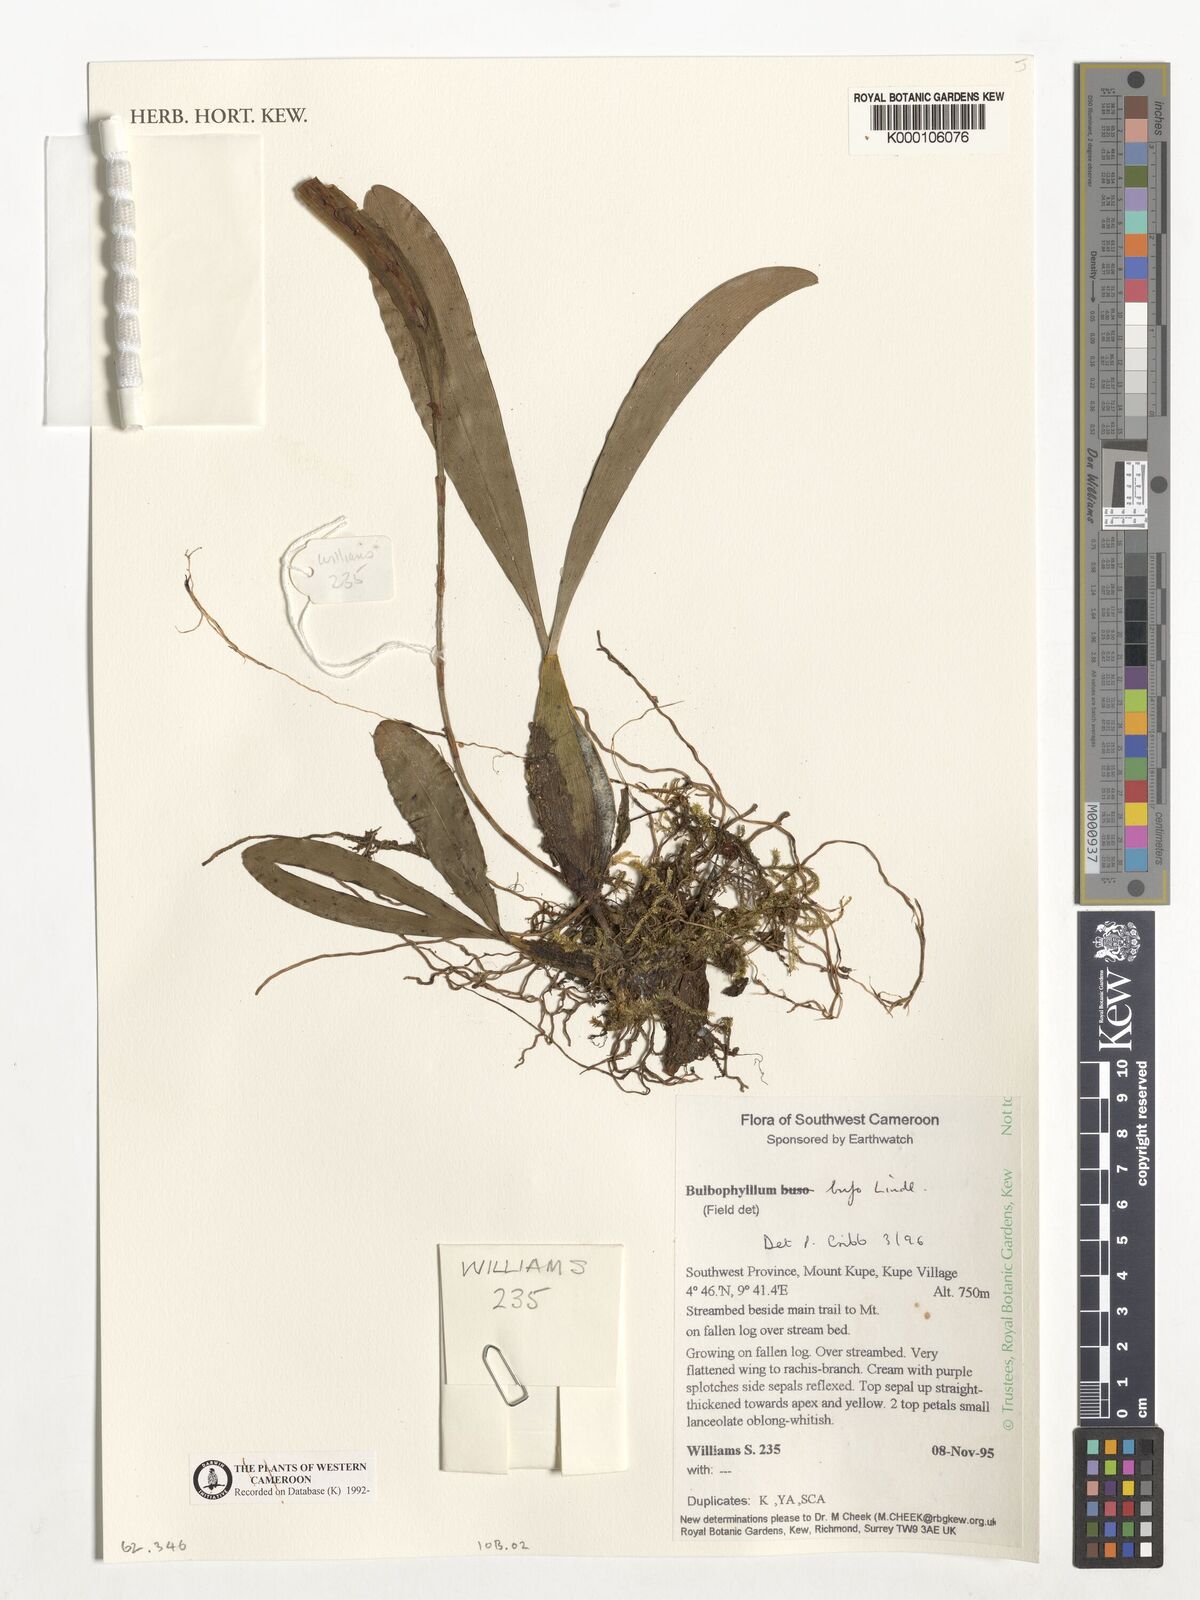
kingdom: Plantae
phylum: Tracheophyta
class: Liliopsida
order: Asparagales
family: Orchidaceae
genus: Bulbophyllum
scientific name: Bulbophyllum falcatum
